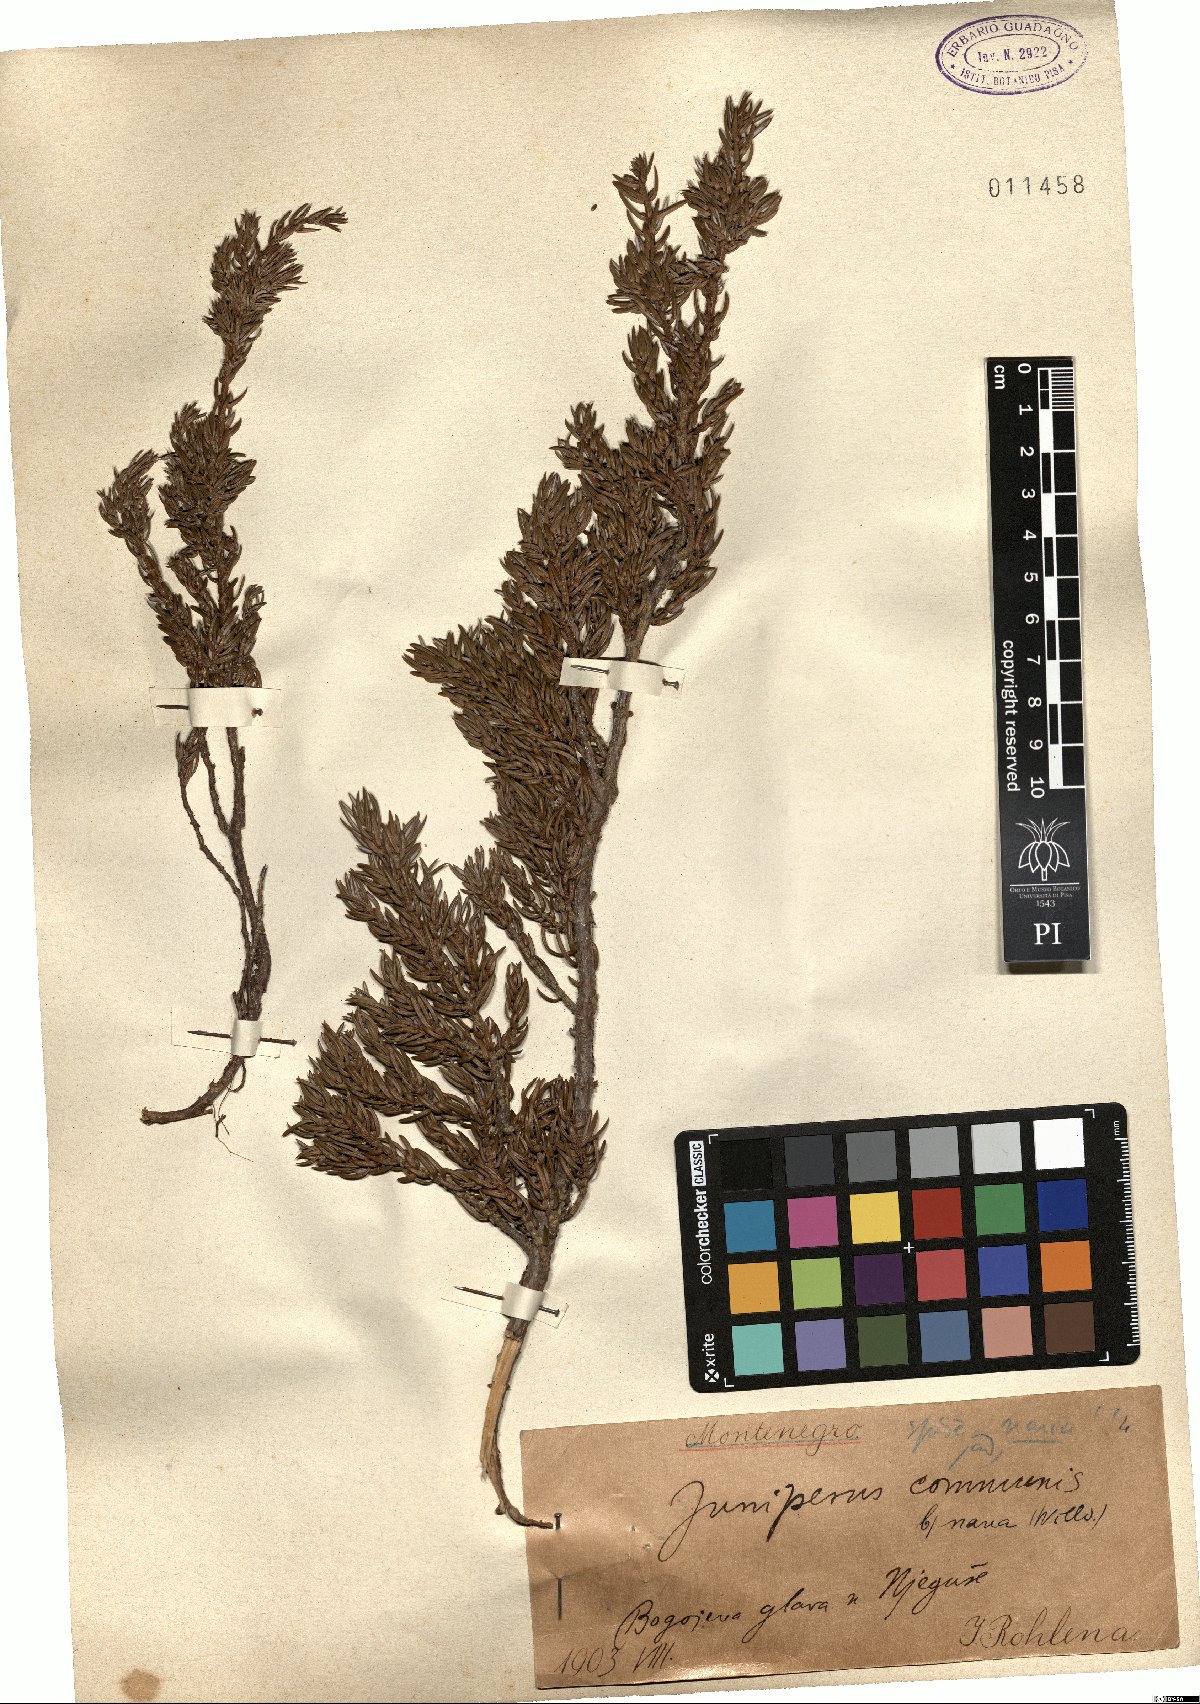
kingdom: Plantae
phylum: Tracheophyta
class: Pinopsida
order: Pinales
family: Cupressaceae
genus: Juniperus
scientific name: Juniperus communis
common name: Common juniper
